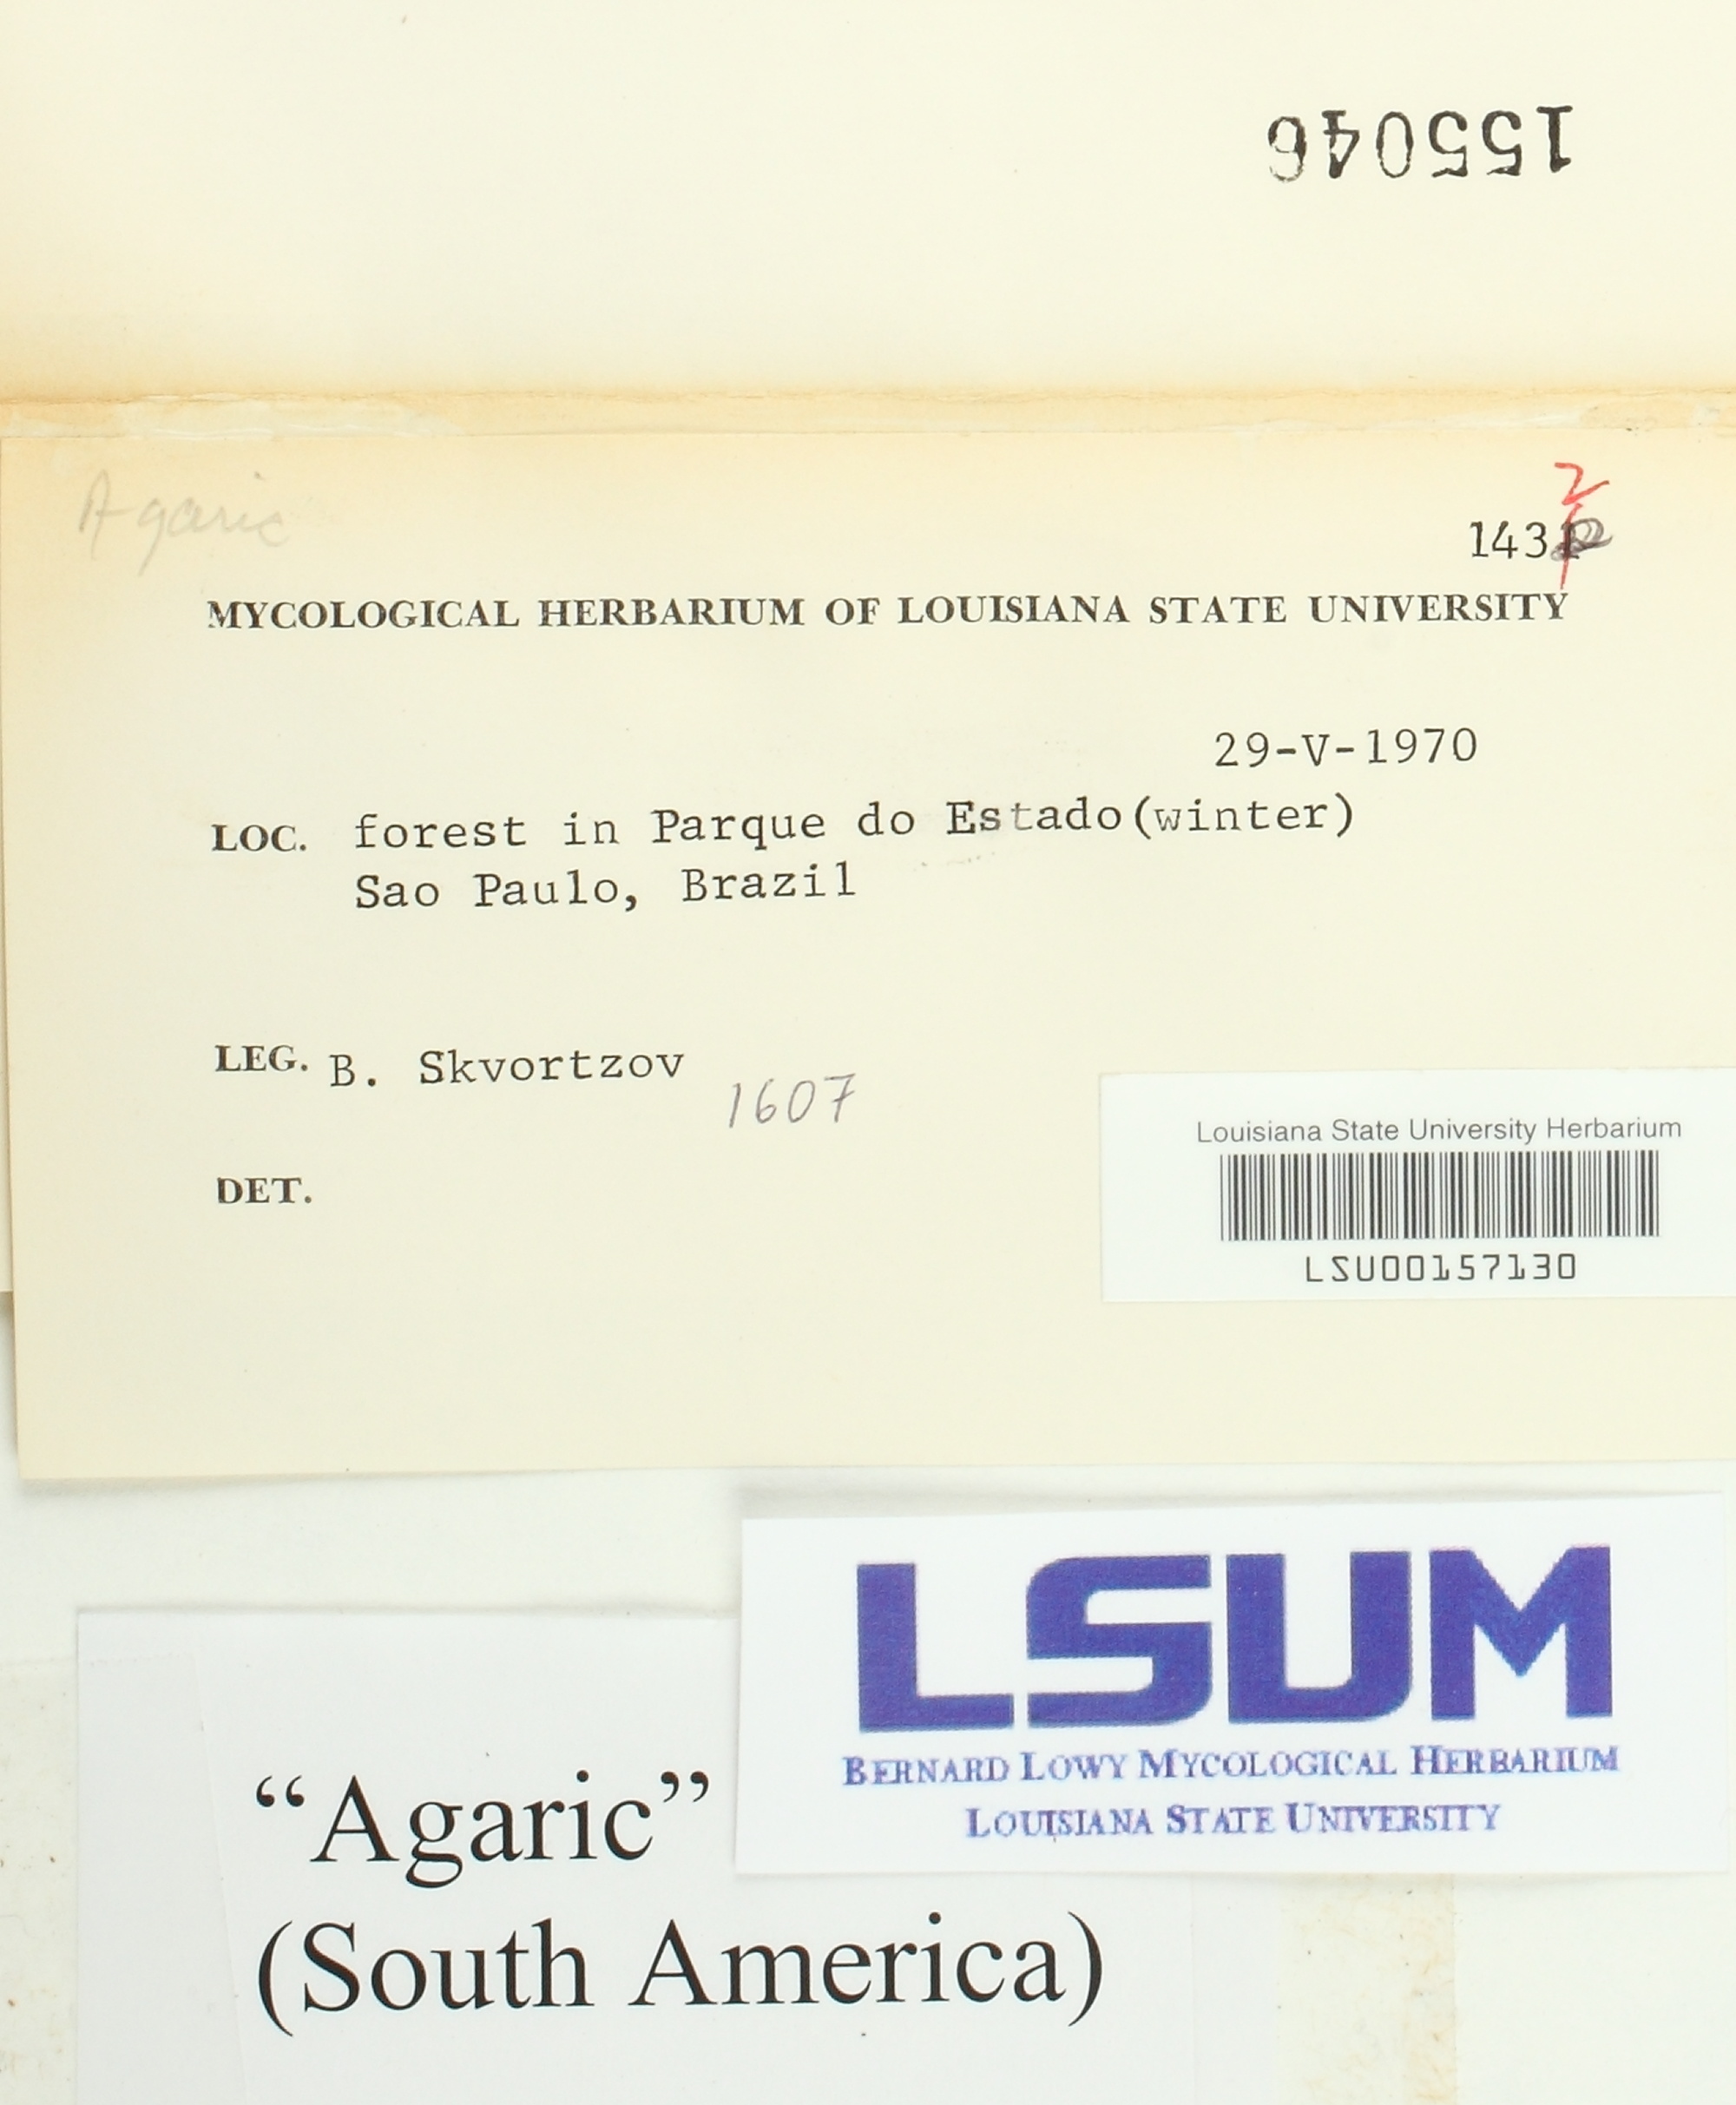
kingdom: Fungi
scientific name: Fungi
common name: Fungi
